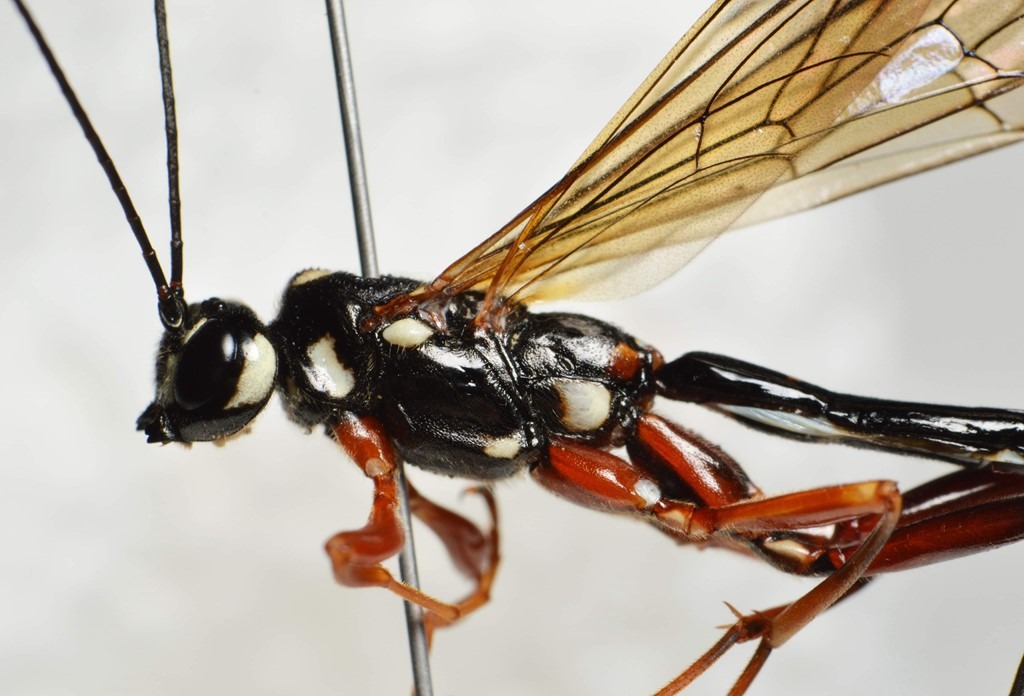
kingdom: Animalia
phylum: Arthropoda
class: Insecta
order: Hymenoptera
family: Ichneumonidae
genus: Megarhyssa
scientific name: Megarhyssa rixator
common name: Sort kæmpesabelhveps
